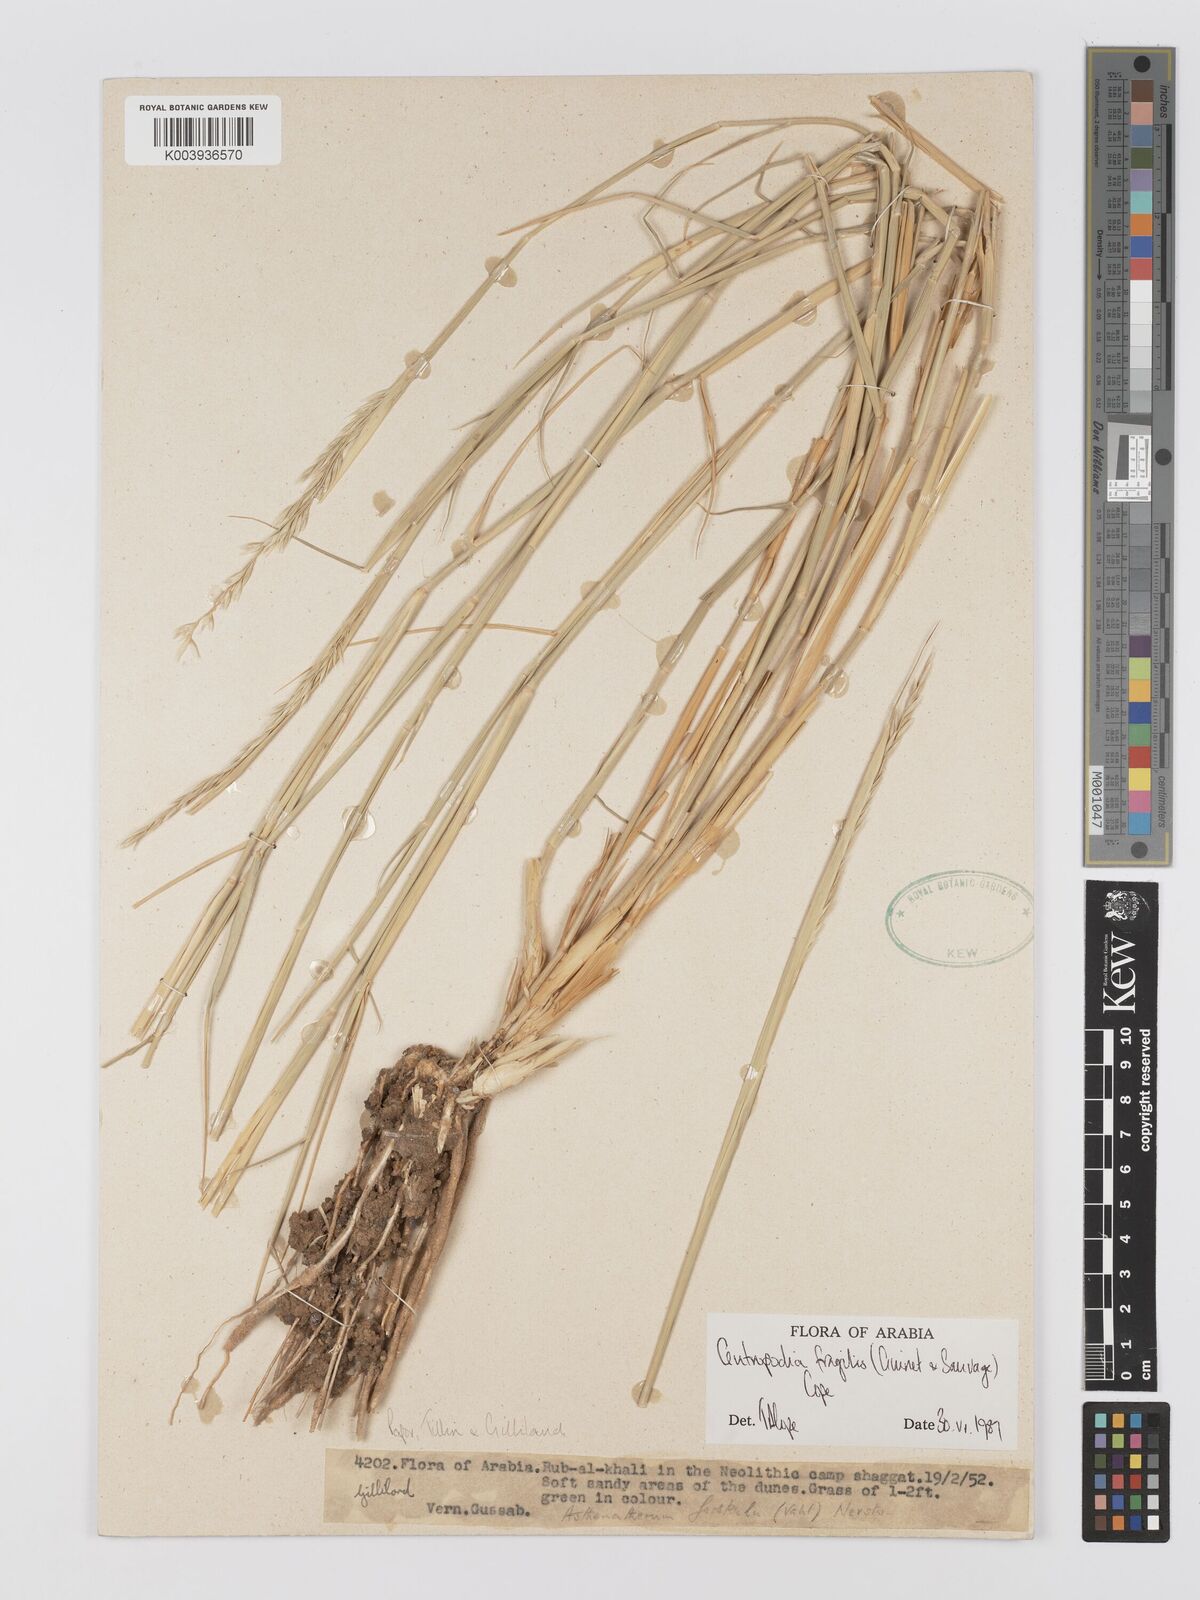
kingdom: Plantae
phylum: Tracheophyta
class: Liliopsida
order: Poales
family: Poaceae
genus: Centropodia
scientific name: Centropodia fragilis
